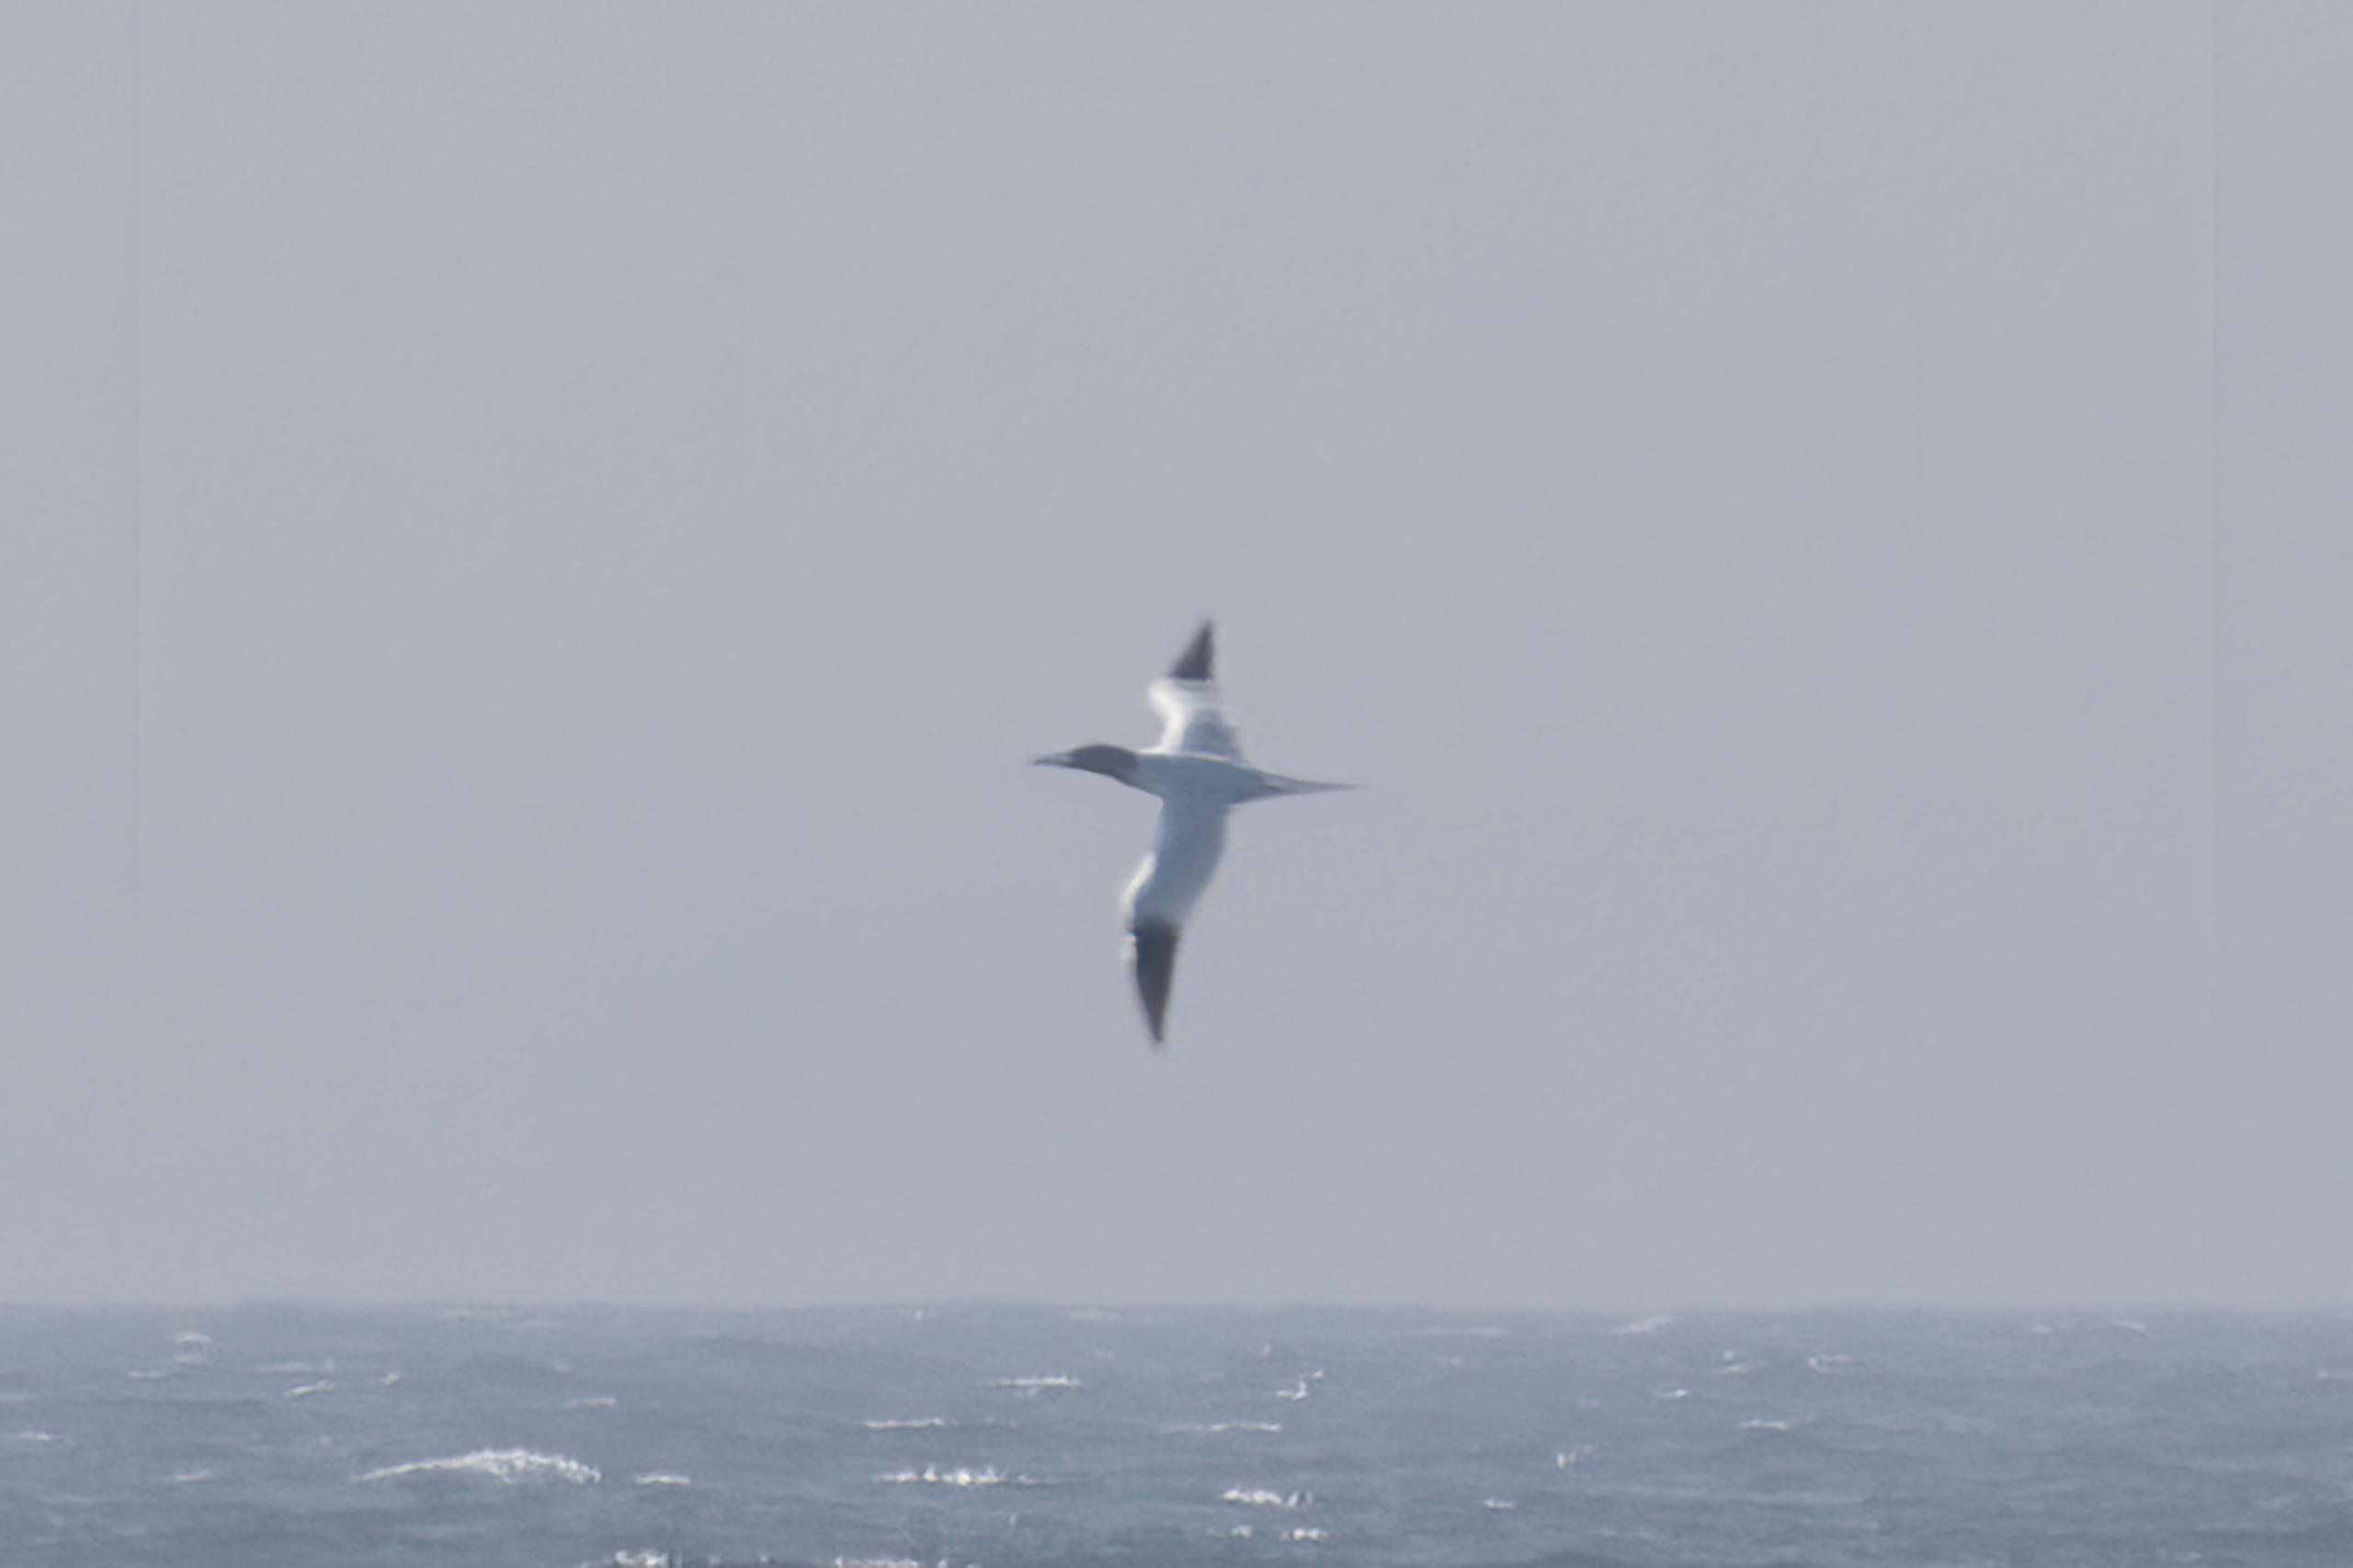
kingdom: Animalia
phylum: Chordata
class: Aves
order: Suliformes
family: Sulidae
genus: Morus
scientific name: Morus bassanus
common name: Sule
